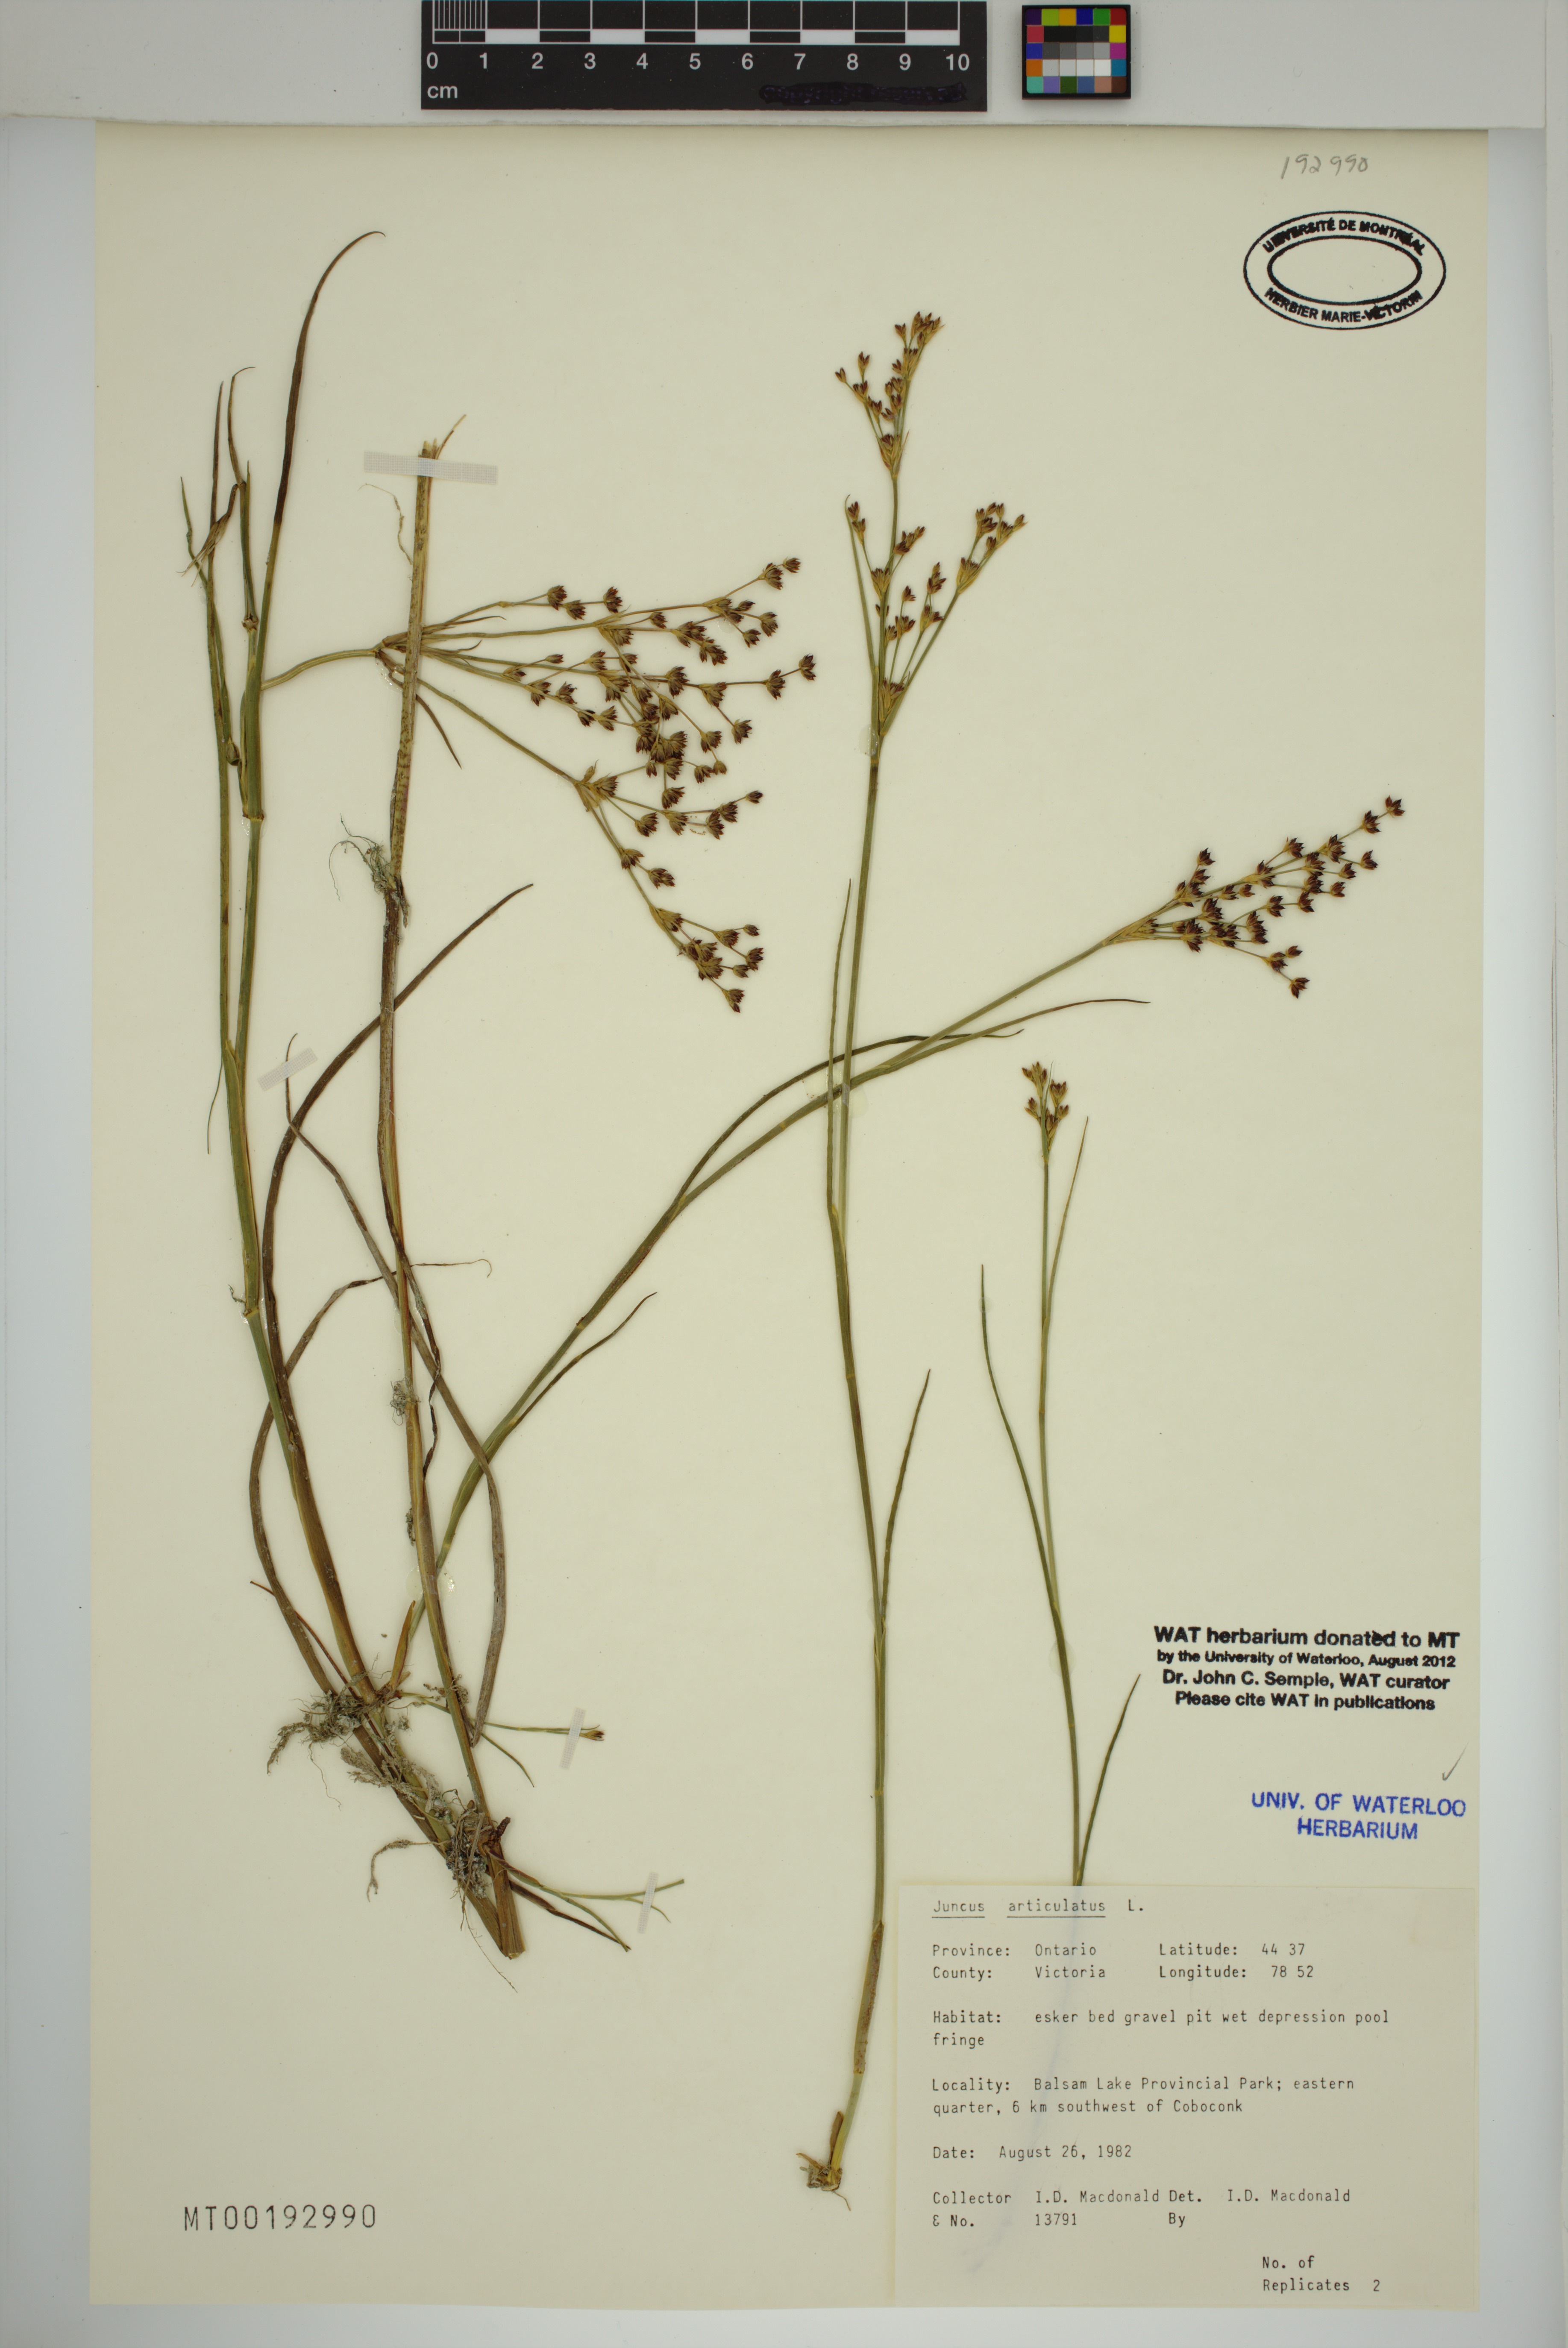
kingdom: Plantae
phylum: Tracheophyta
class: Liliopsida
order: Poales
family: Juncaceae
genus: Juncus
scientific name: Juncus articulatus
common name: Jointed rush
